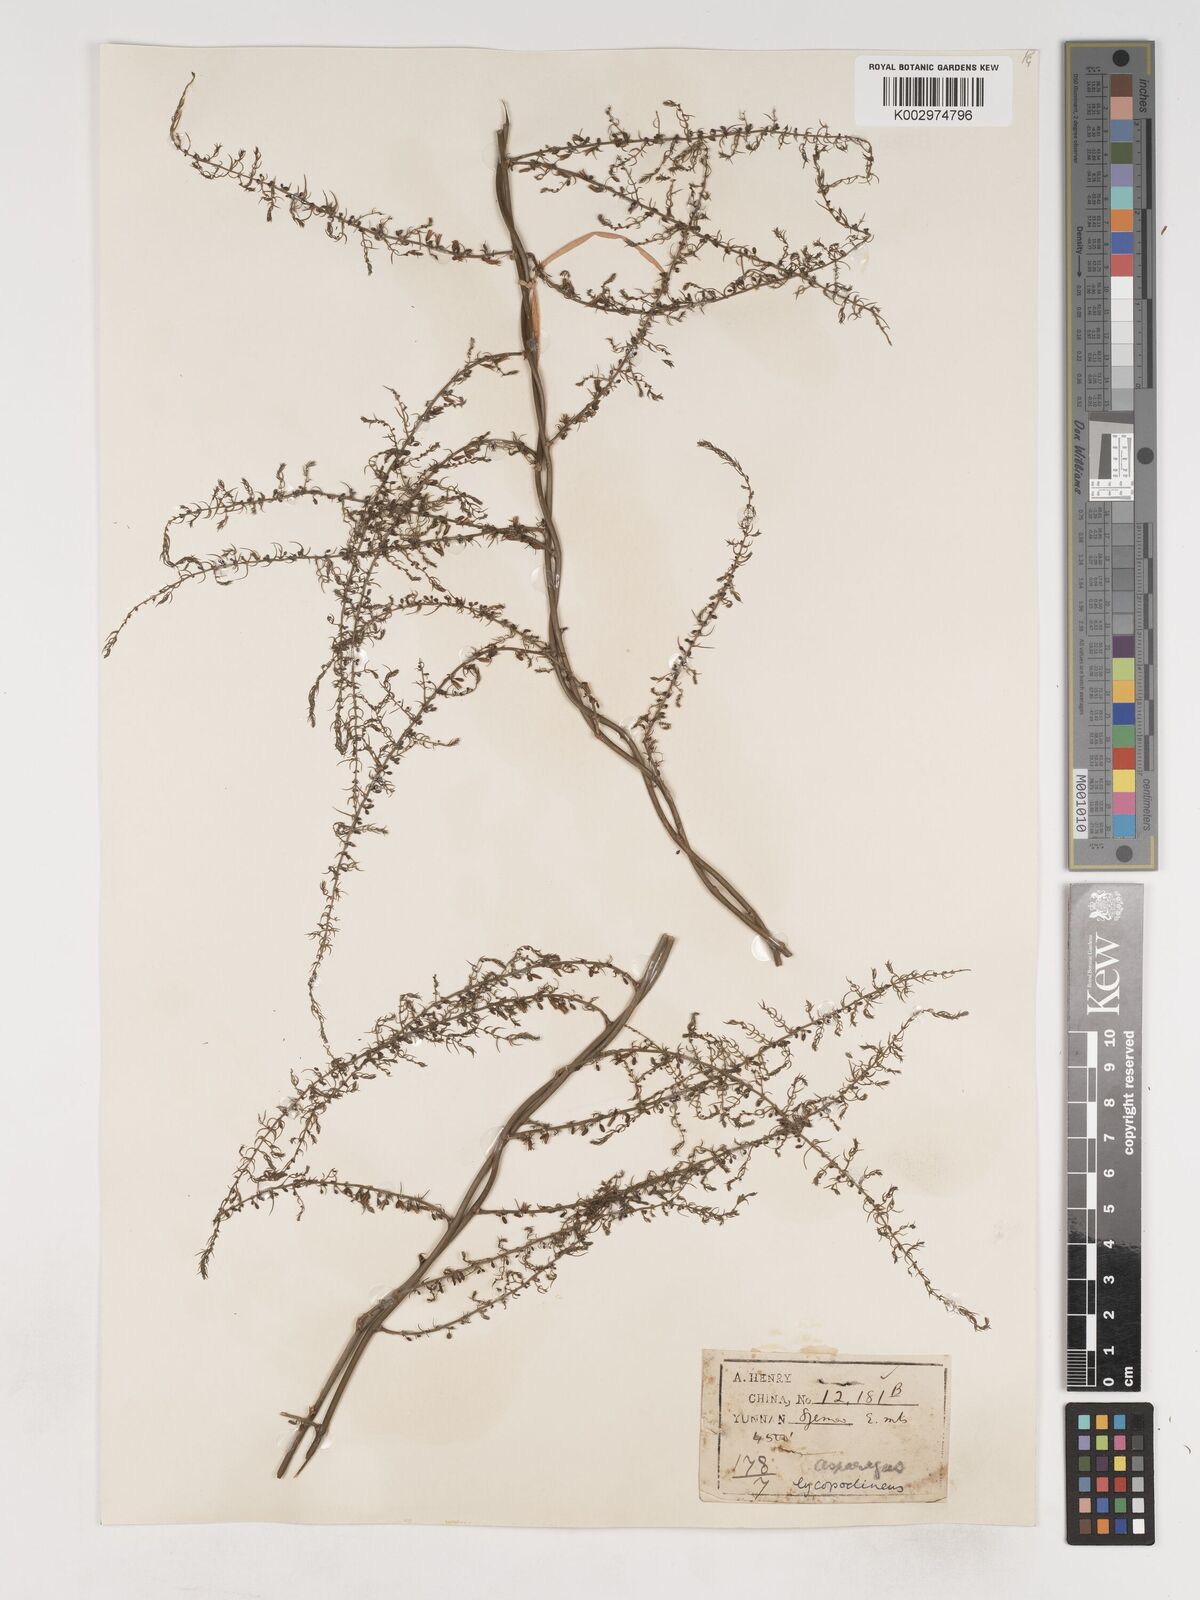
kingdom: Plantae
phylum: Tracheophyta
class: Liliopsida
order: Asparagales
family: Asparagaceae
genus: Asparagus
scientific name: Asparagus filicinus
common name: Fern asparagus
